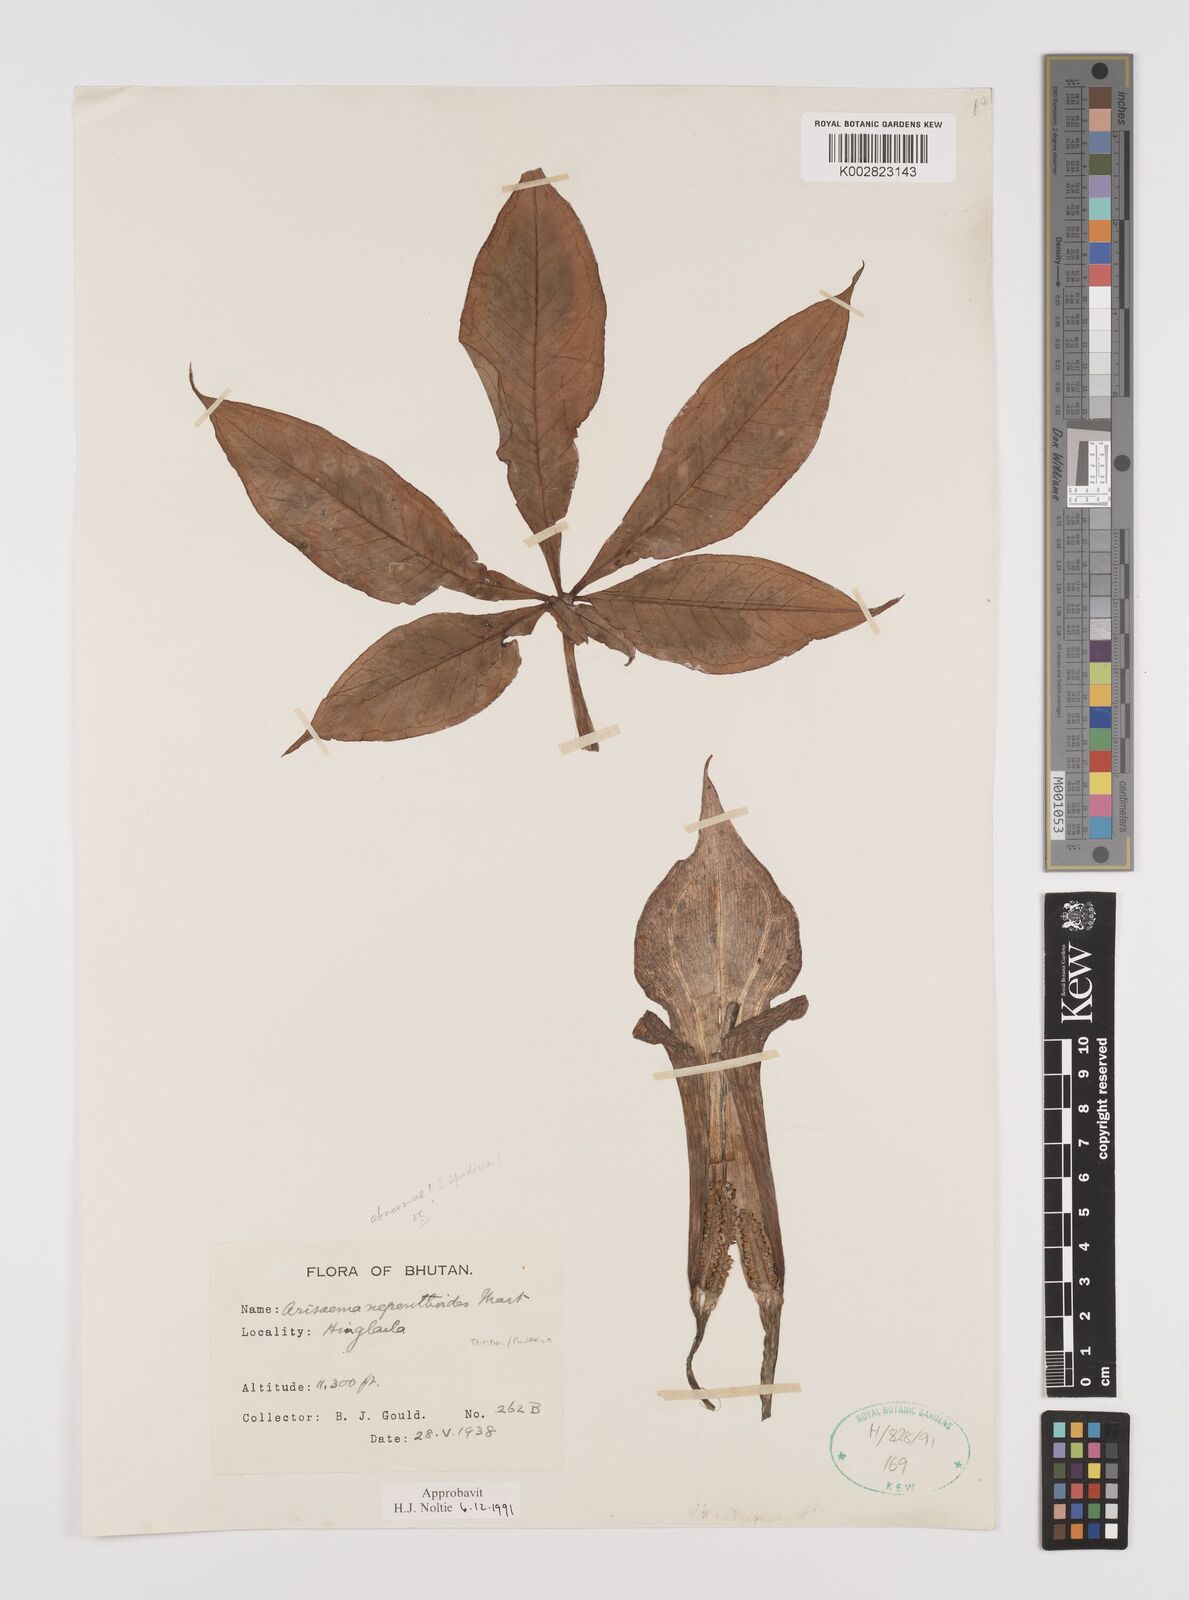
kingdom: Plantae
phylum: Tracheophyta
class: Liliopsida
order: Alismatales
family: Araceae
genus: Arisaema
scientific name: Arisaema nepenthoides
